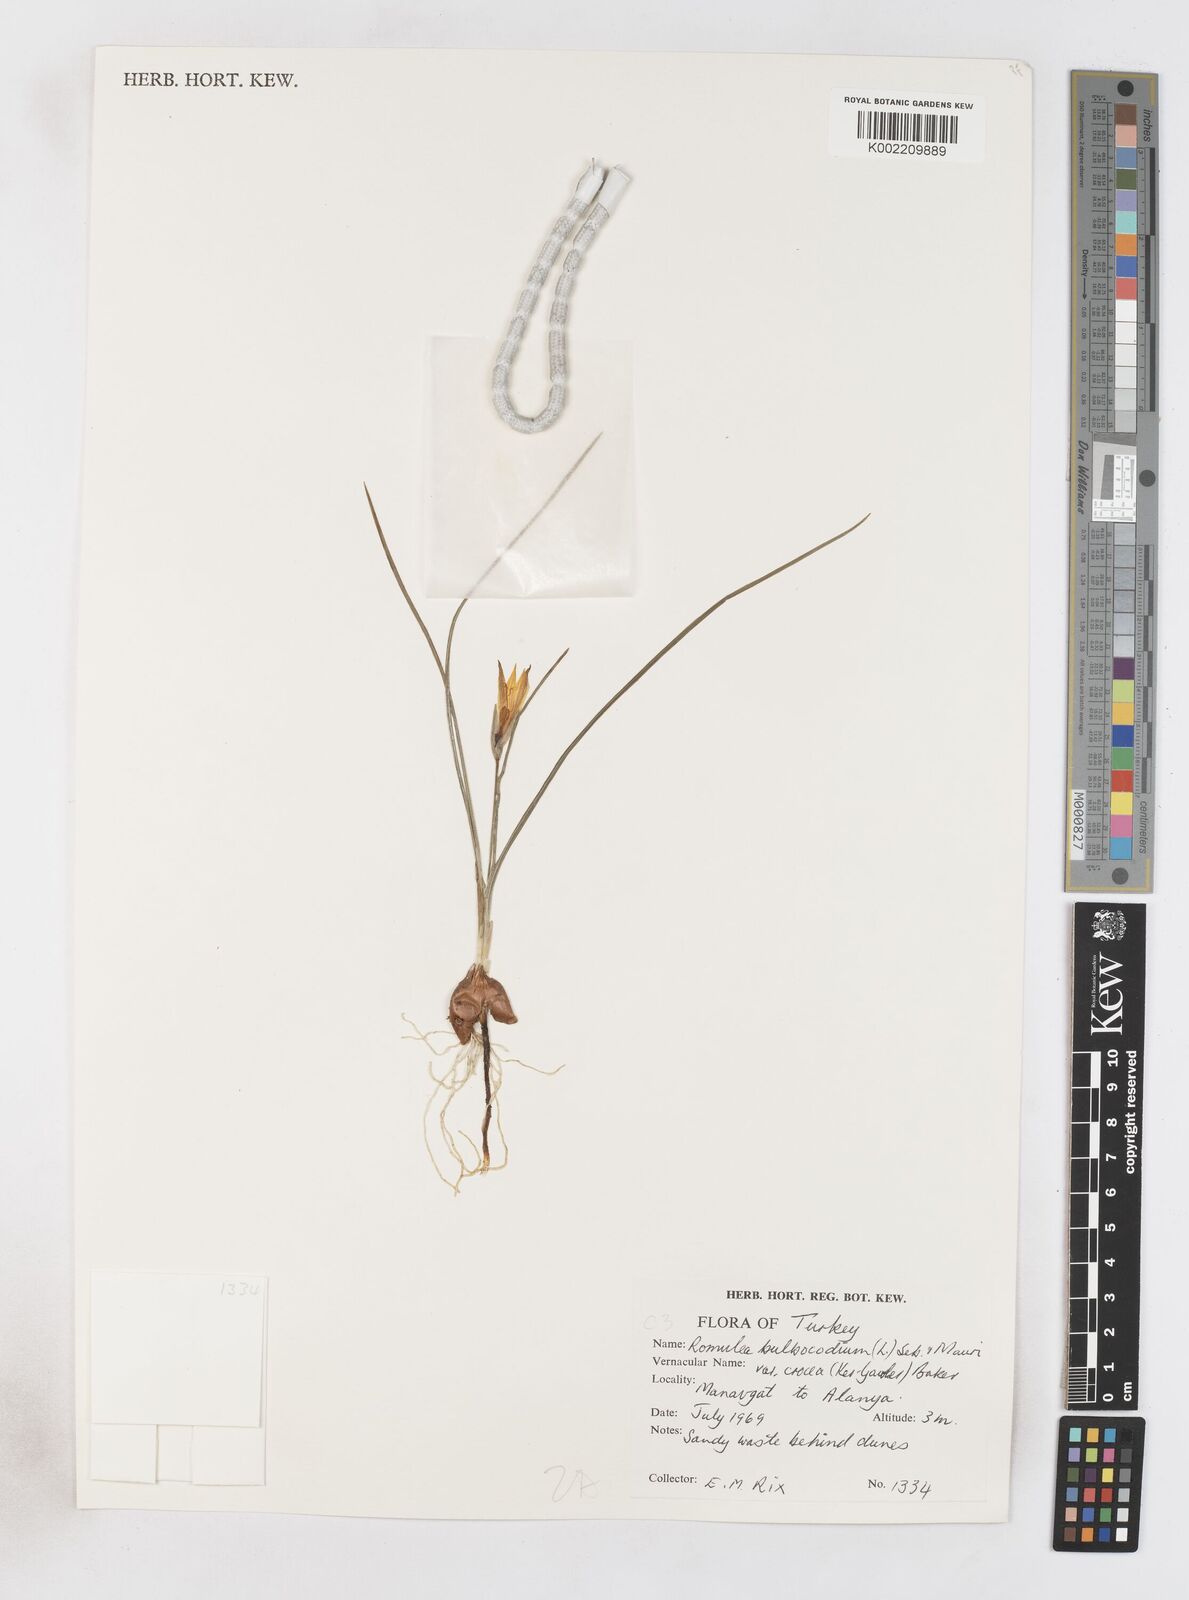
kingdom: Plantae
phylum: Tracheophyta
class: Liliopsida
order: Asparagales
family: Iridaceae
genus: Romulea
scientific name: Romulea bulbocodium
